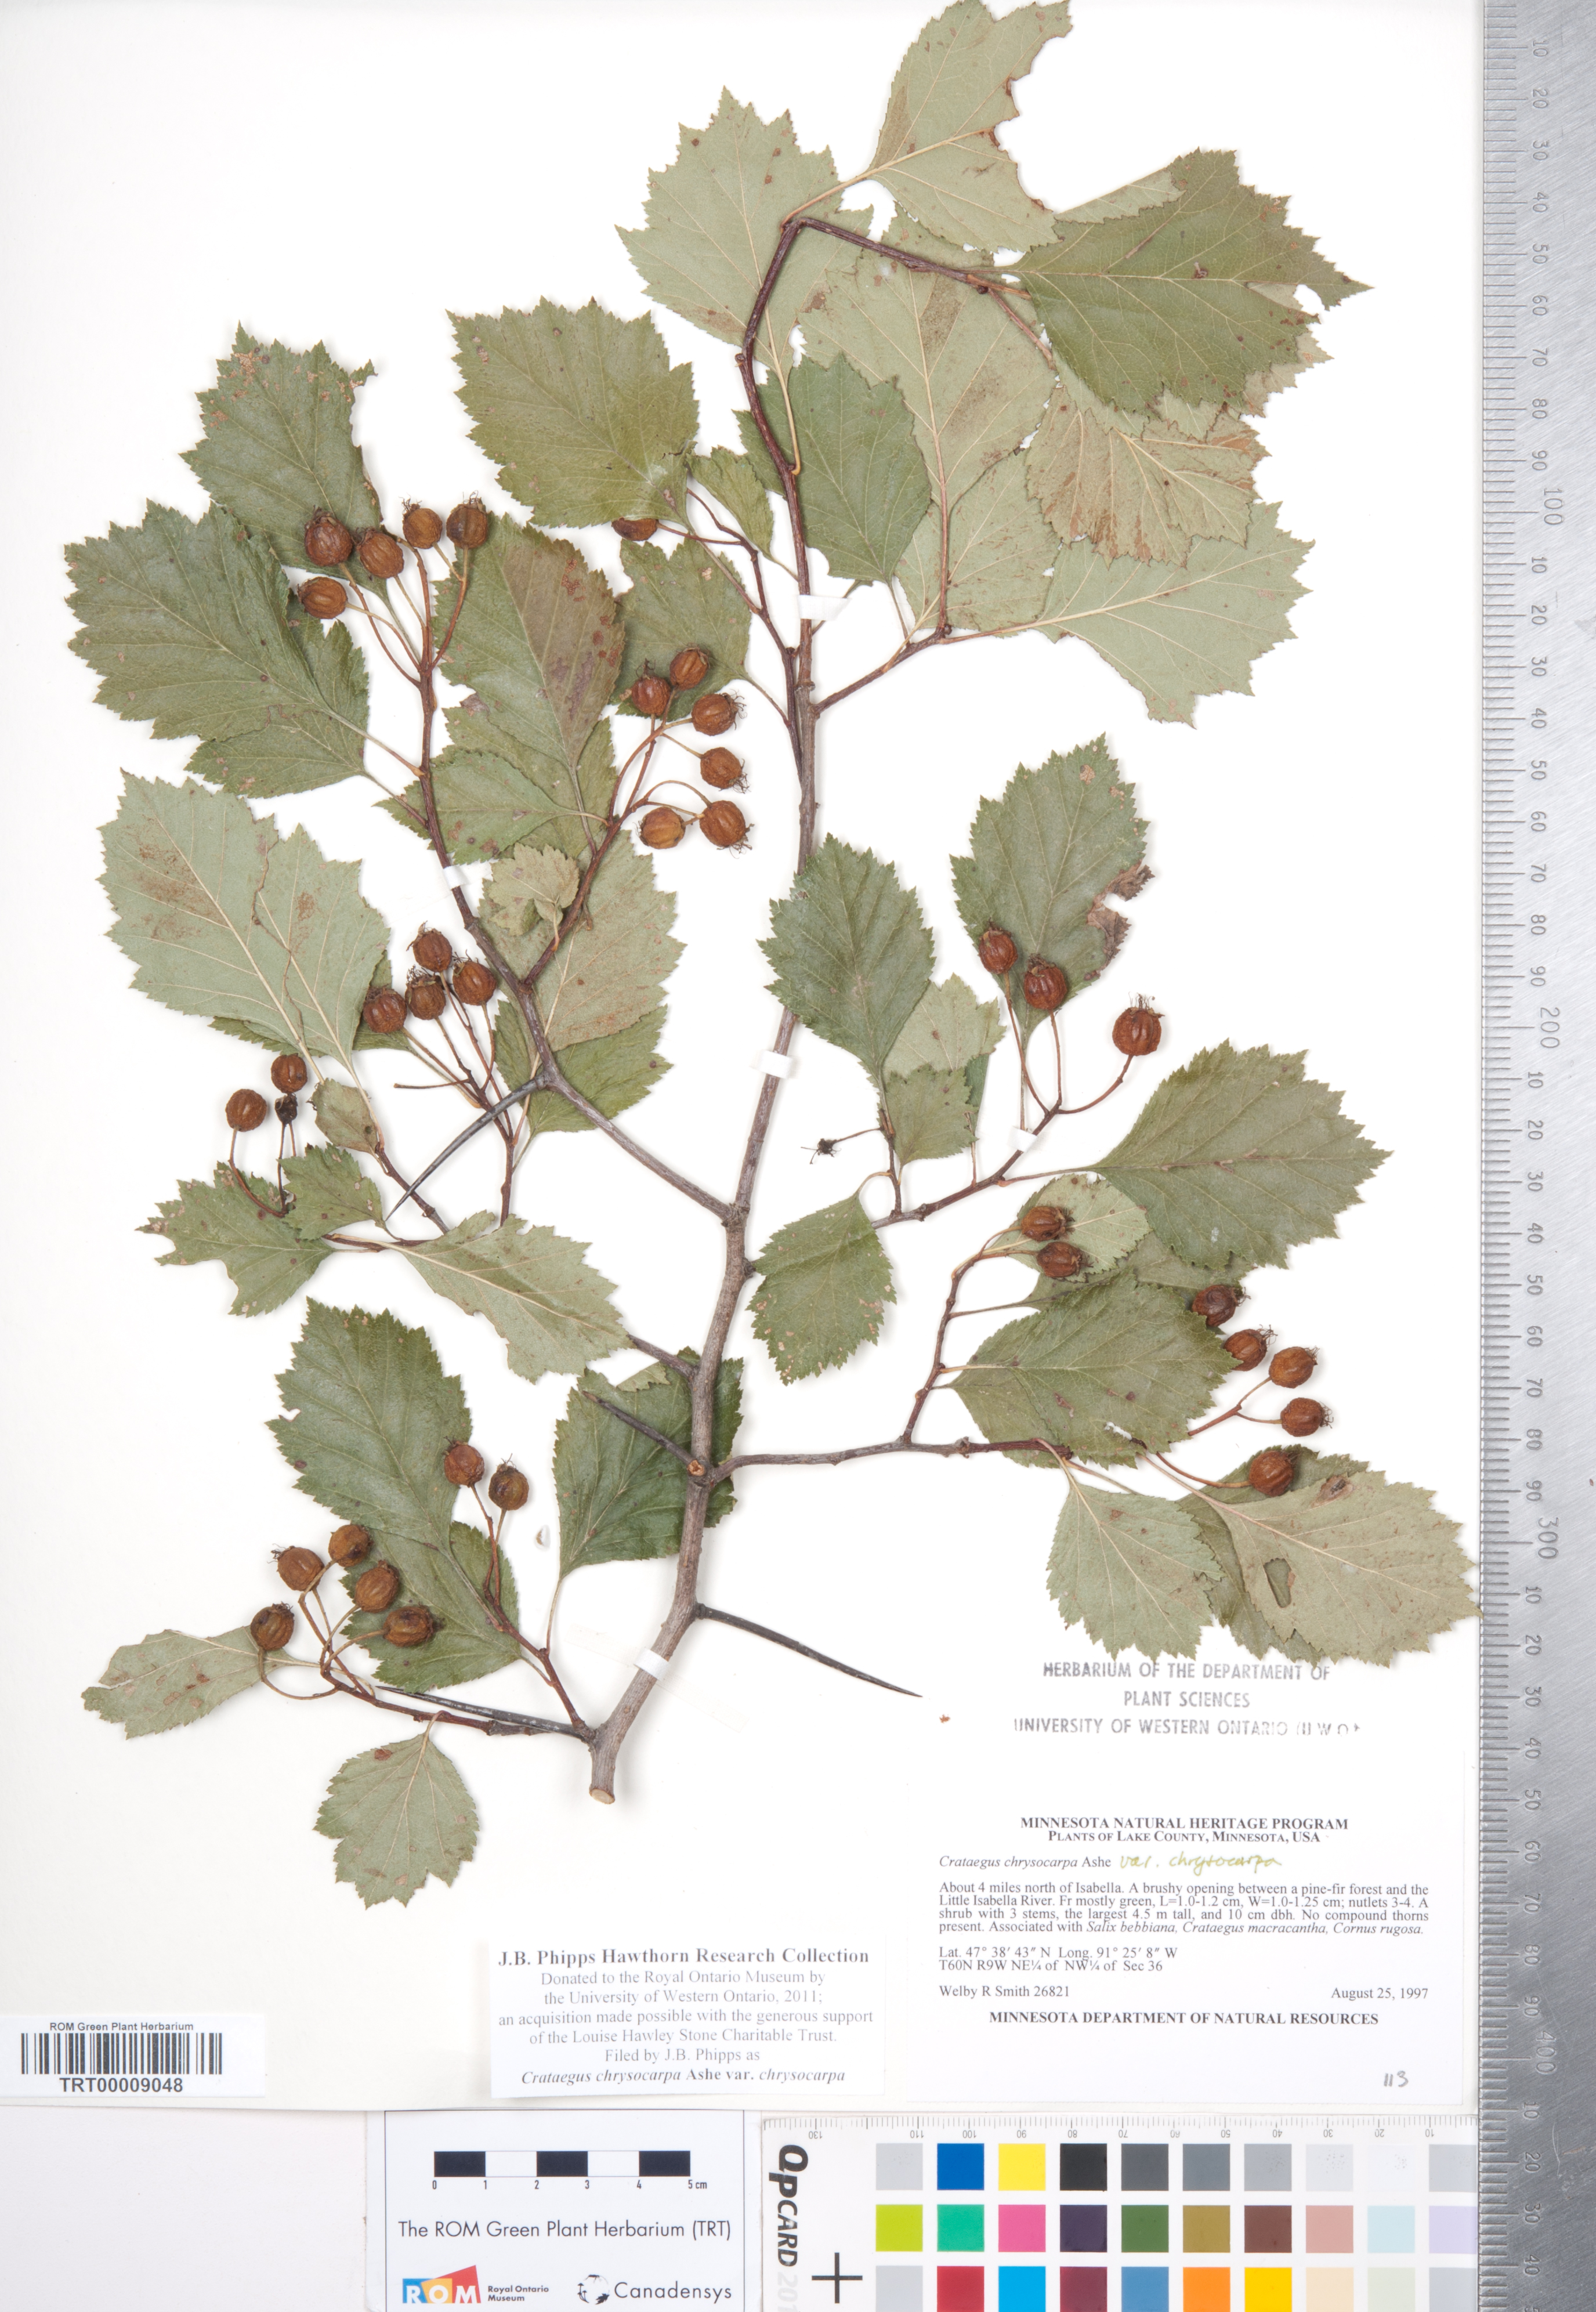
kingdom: Plantae
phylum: Tracheophyta
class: Magnoliopsida
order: Rosales
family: Rosaceae
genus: Crataegus
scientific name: Crataegus chrysocarpa
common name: Fire-berry hawthorn
